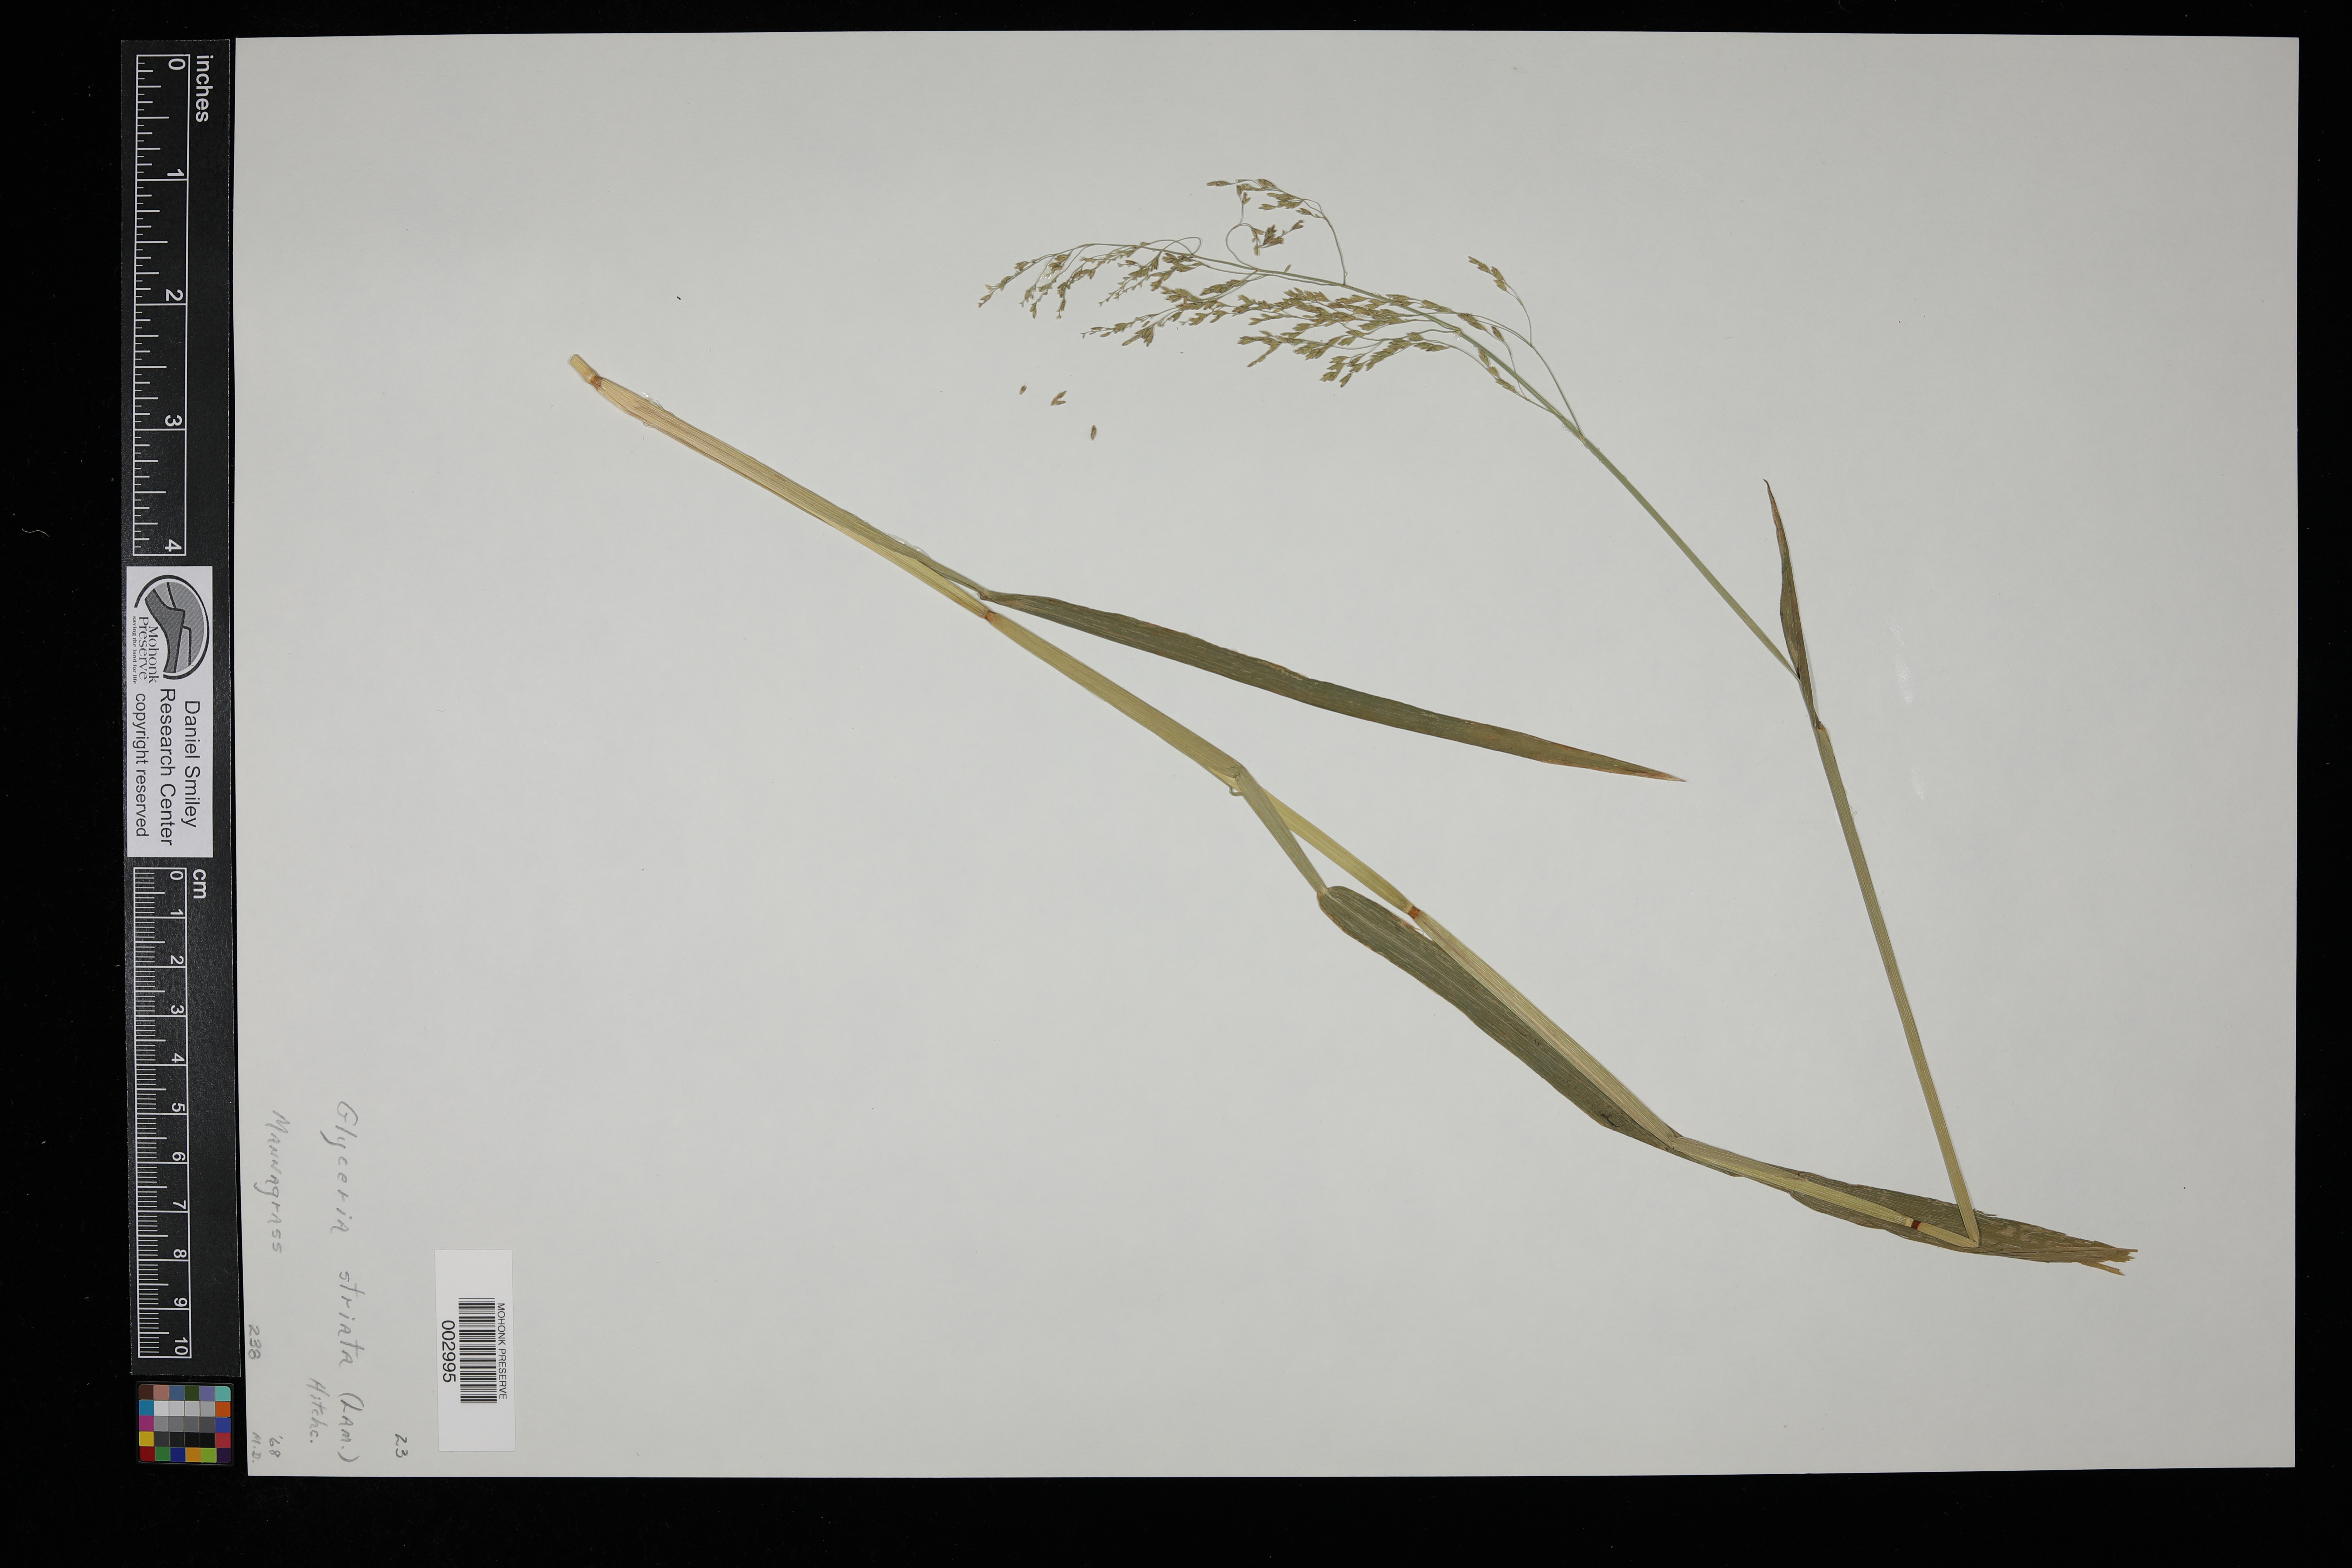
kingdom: Plantae
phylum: Tracheophyta
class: Liliopsida
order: Poales
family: Poaceae
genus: Glyceria
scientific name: Glyceria striata
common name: Fowl manna grass
